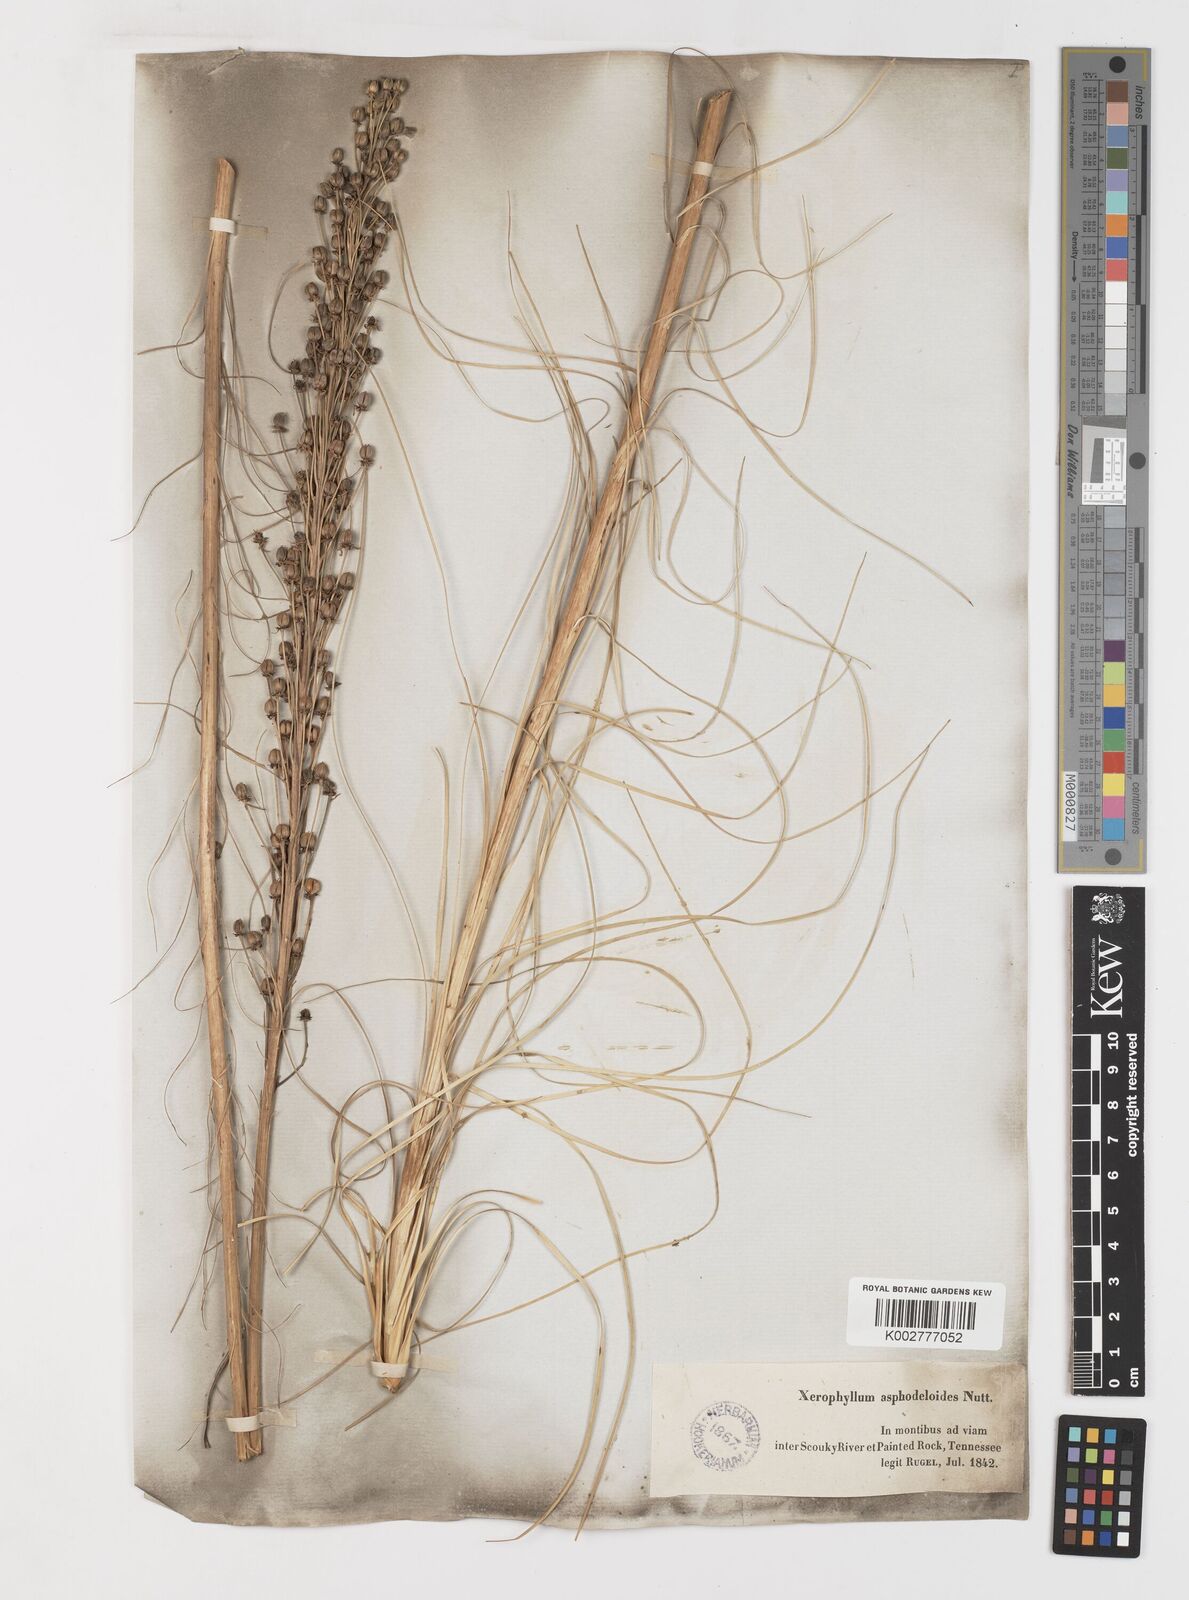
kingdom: Plantae
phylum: Tracheophyta
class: Liliopsida
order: Liliales
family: Melanthiaceae
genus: Xerophyllum
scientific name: Xerophyllum asphodeloides
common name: Mountain-asphodel
